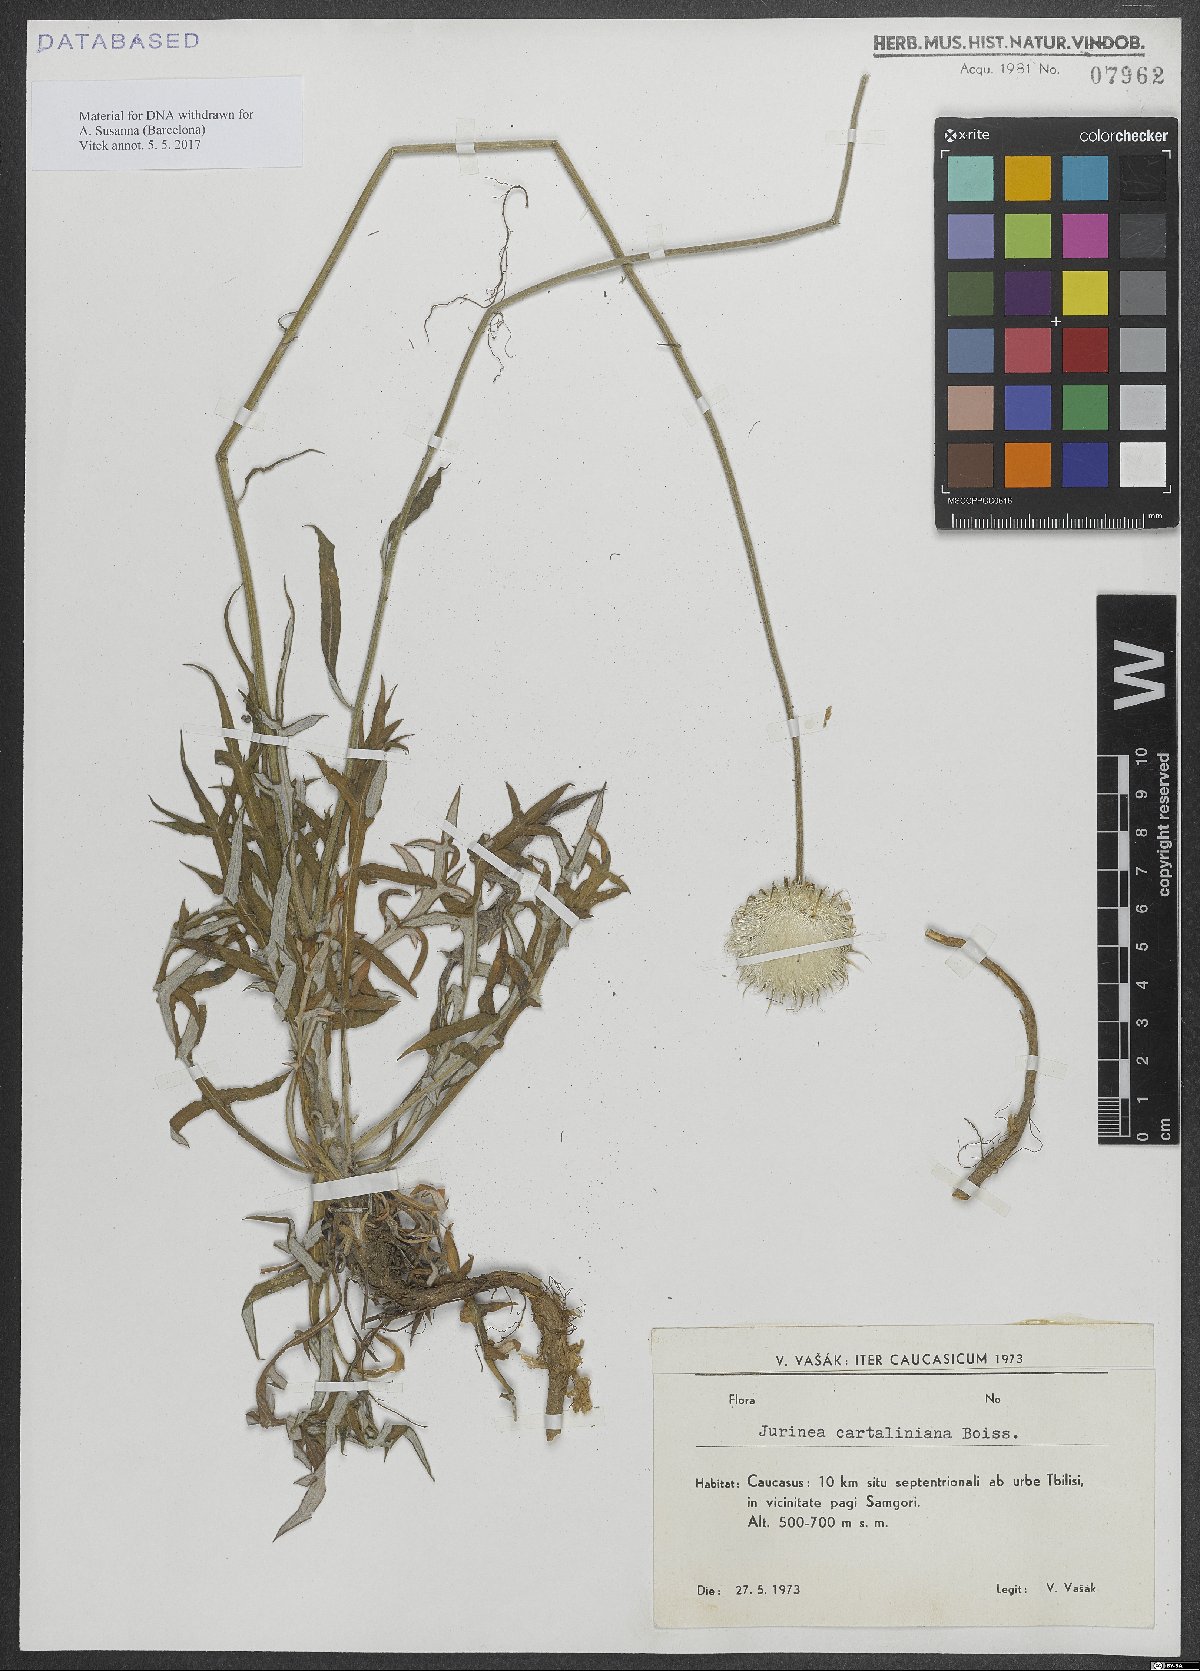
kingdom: Plantae
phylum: Tracheophyta
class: Magnoliopsida
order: Asterales
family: Asteraceae
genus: Jurinea
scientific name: Jurinea cartaliniana
